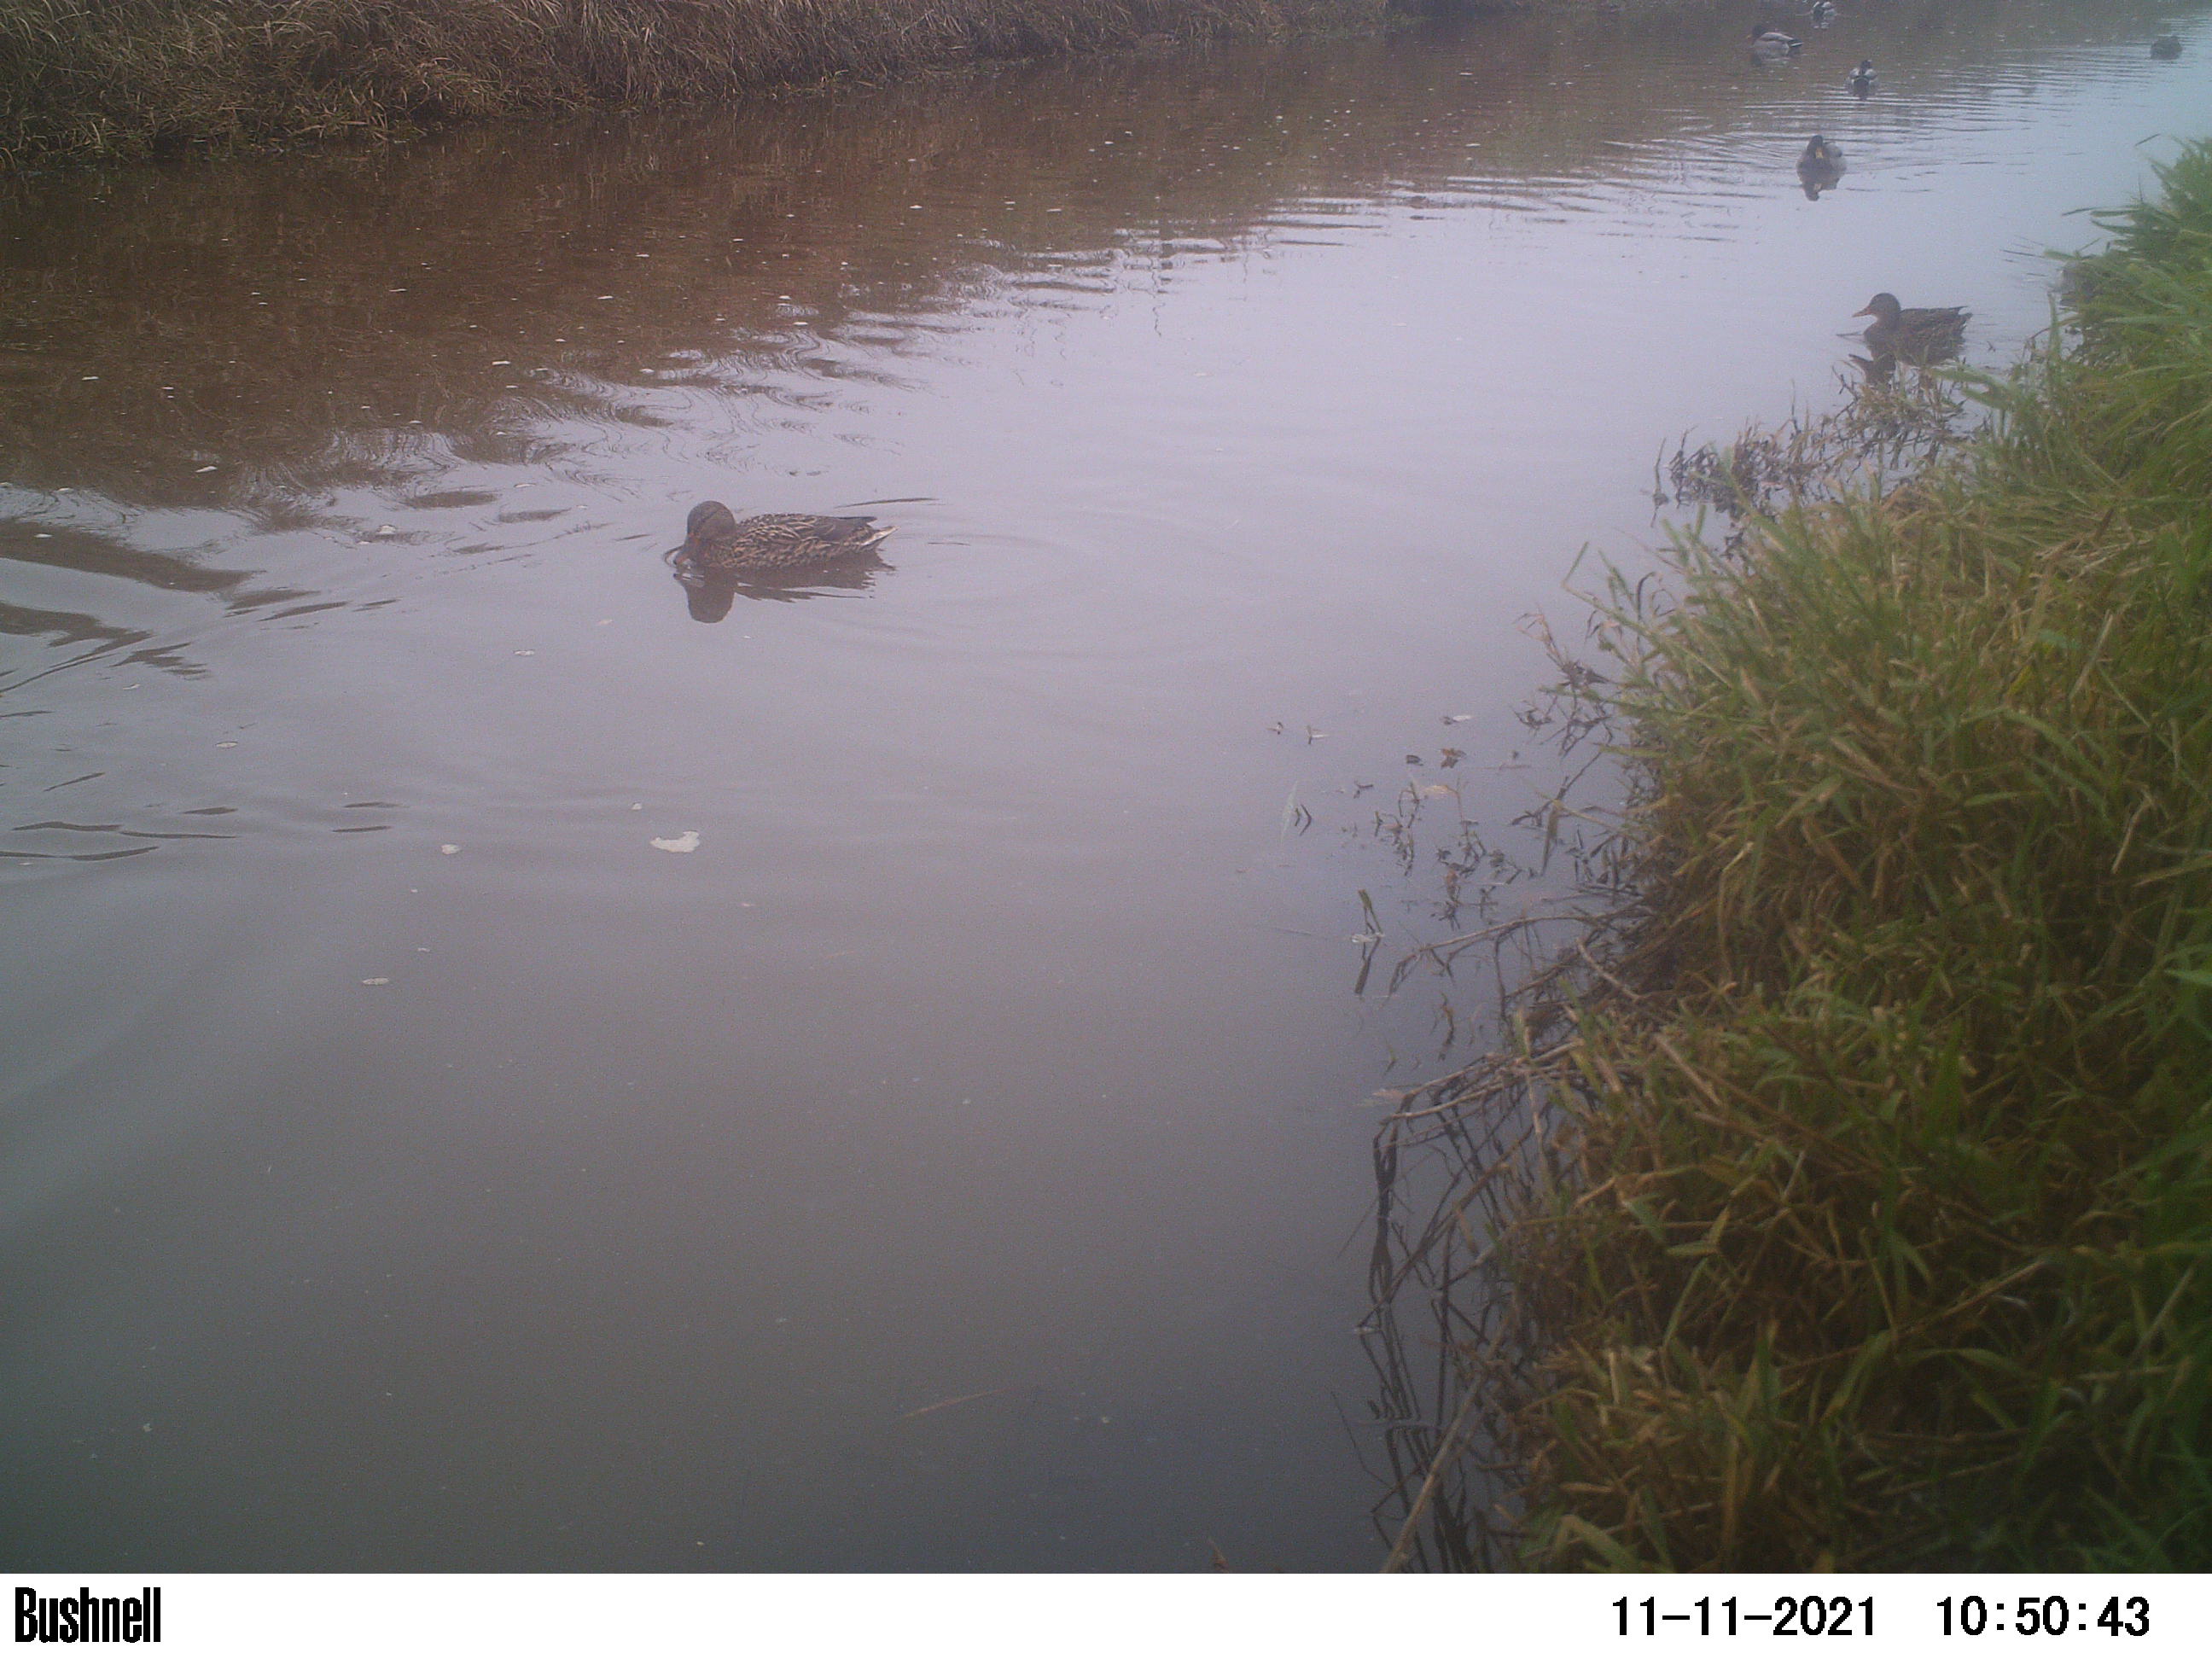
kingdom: Animalia
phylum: Chordata
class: Aves
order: Anseriformes
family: Anatidae
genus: Anas
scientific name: Anas
